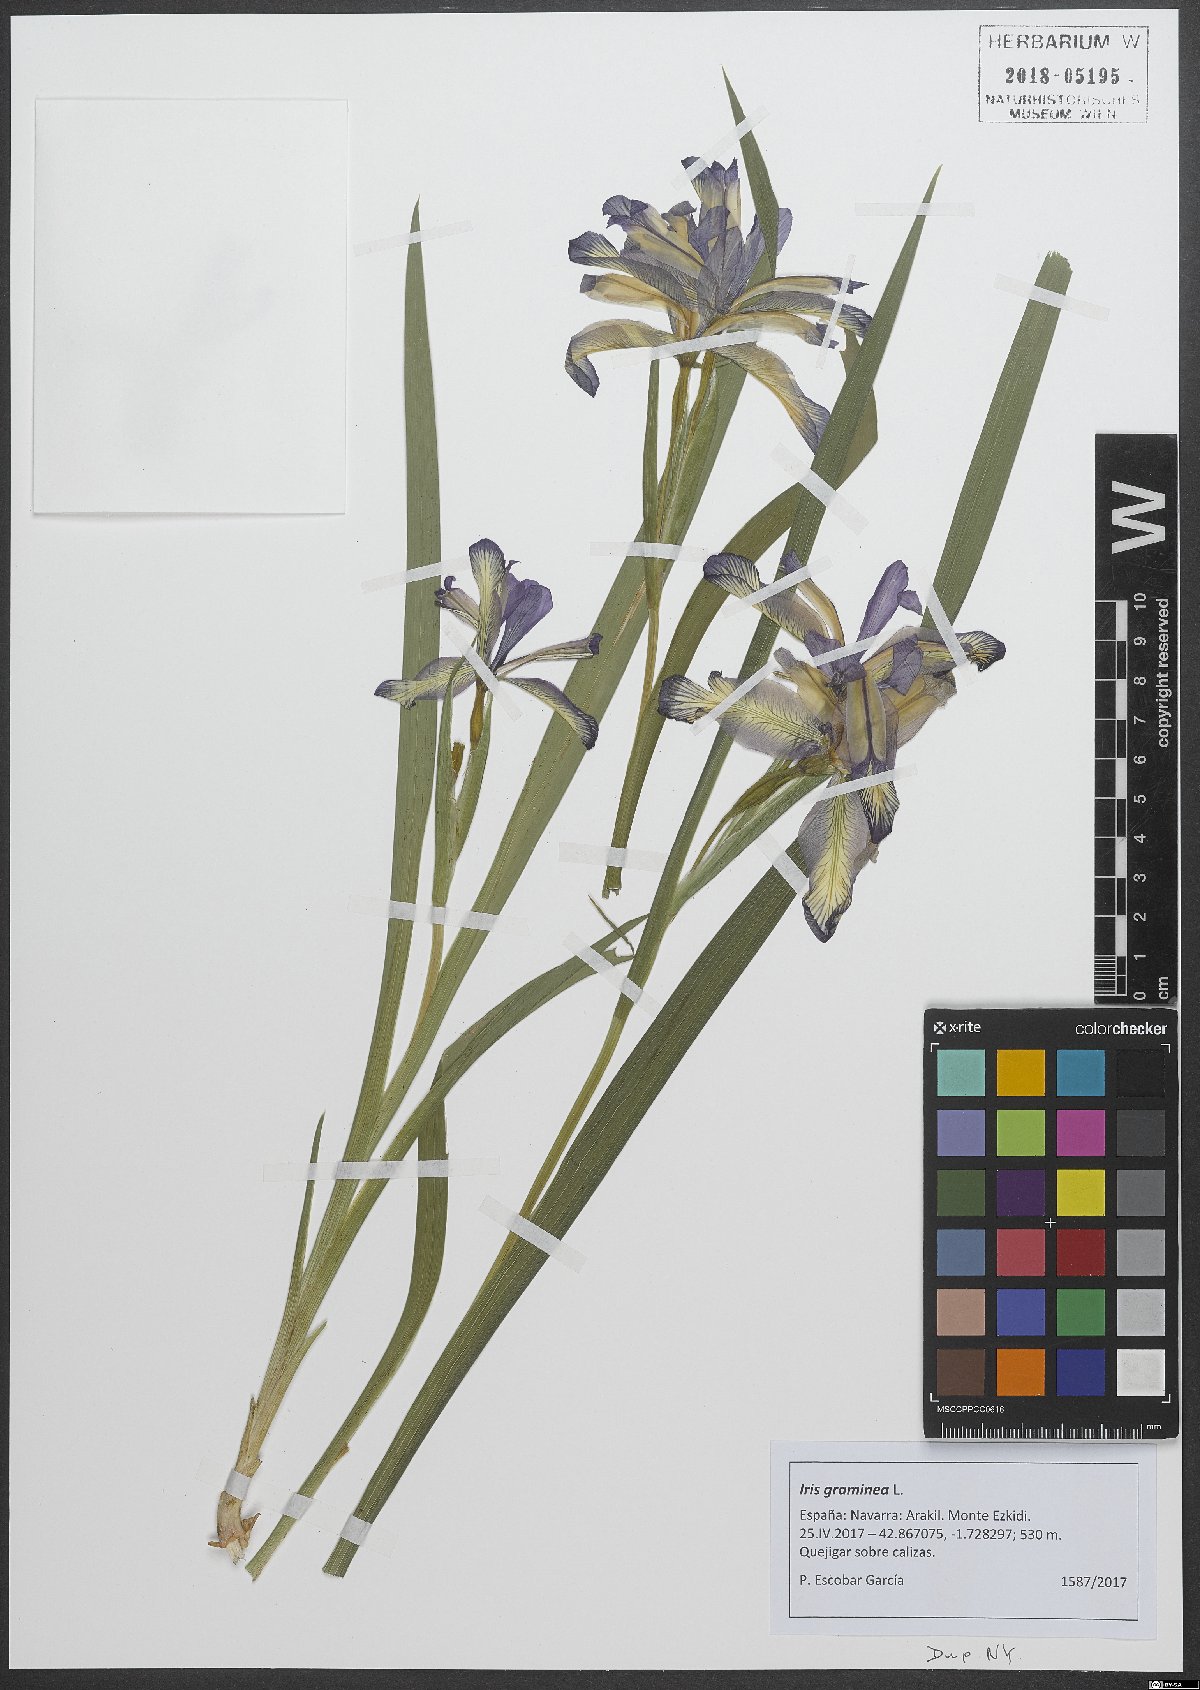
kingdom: Plantae
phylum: Tracheophyta
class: Liliopsida
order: Asparagales
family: Iridaceae
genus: Iris
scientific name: Iris graminea
